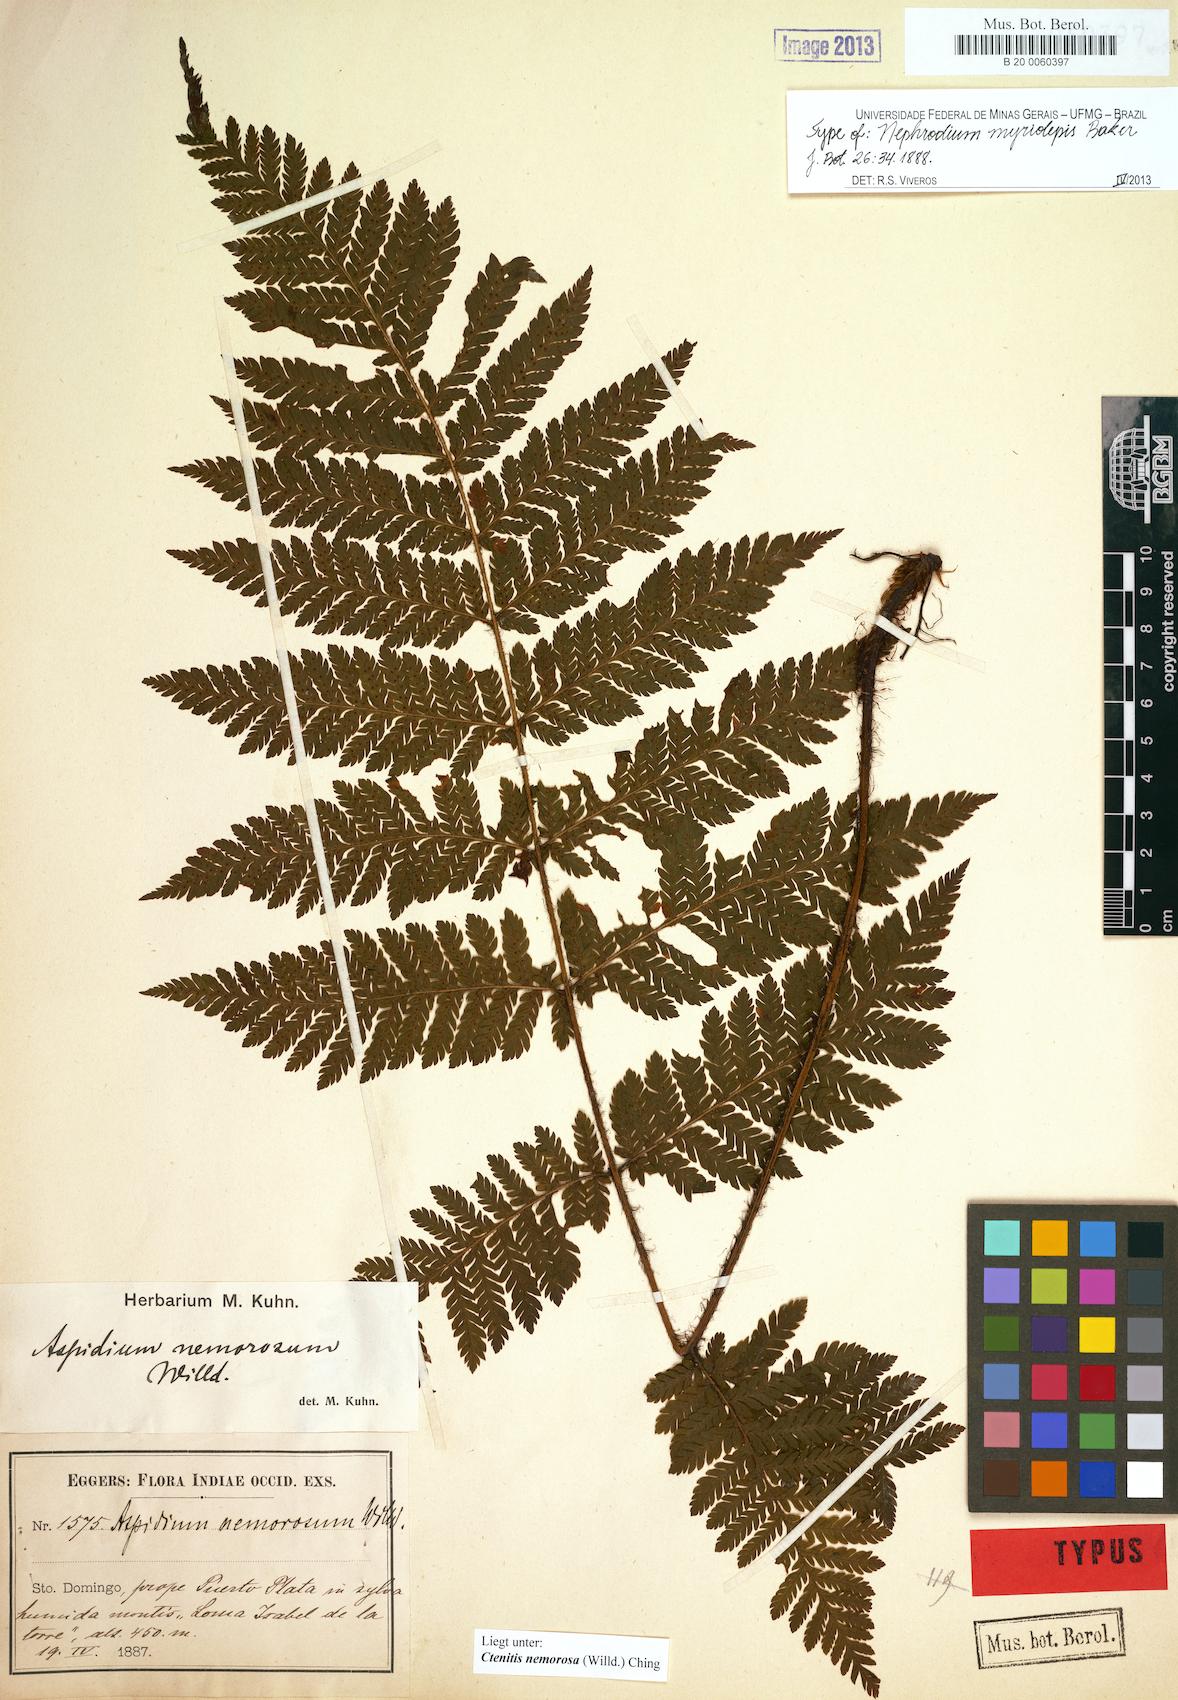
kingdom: Plantae
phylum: Tracheophyta
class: Polypodiopsida
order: Polypodiales
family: Dryopteridaceae
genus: Ctenitis
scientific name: Ctenitis nemorosa
